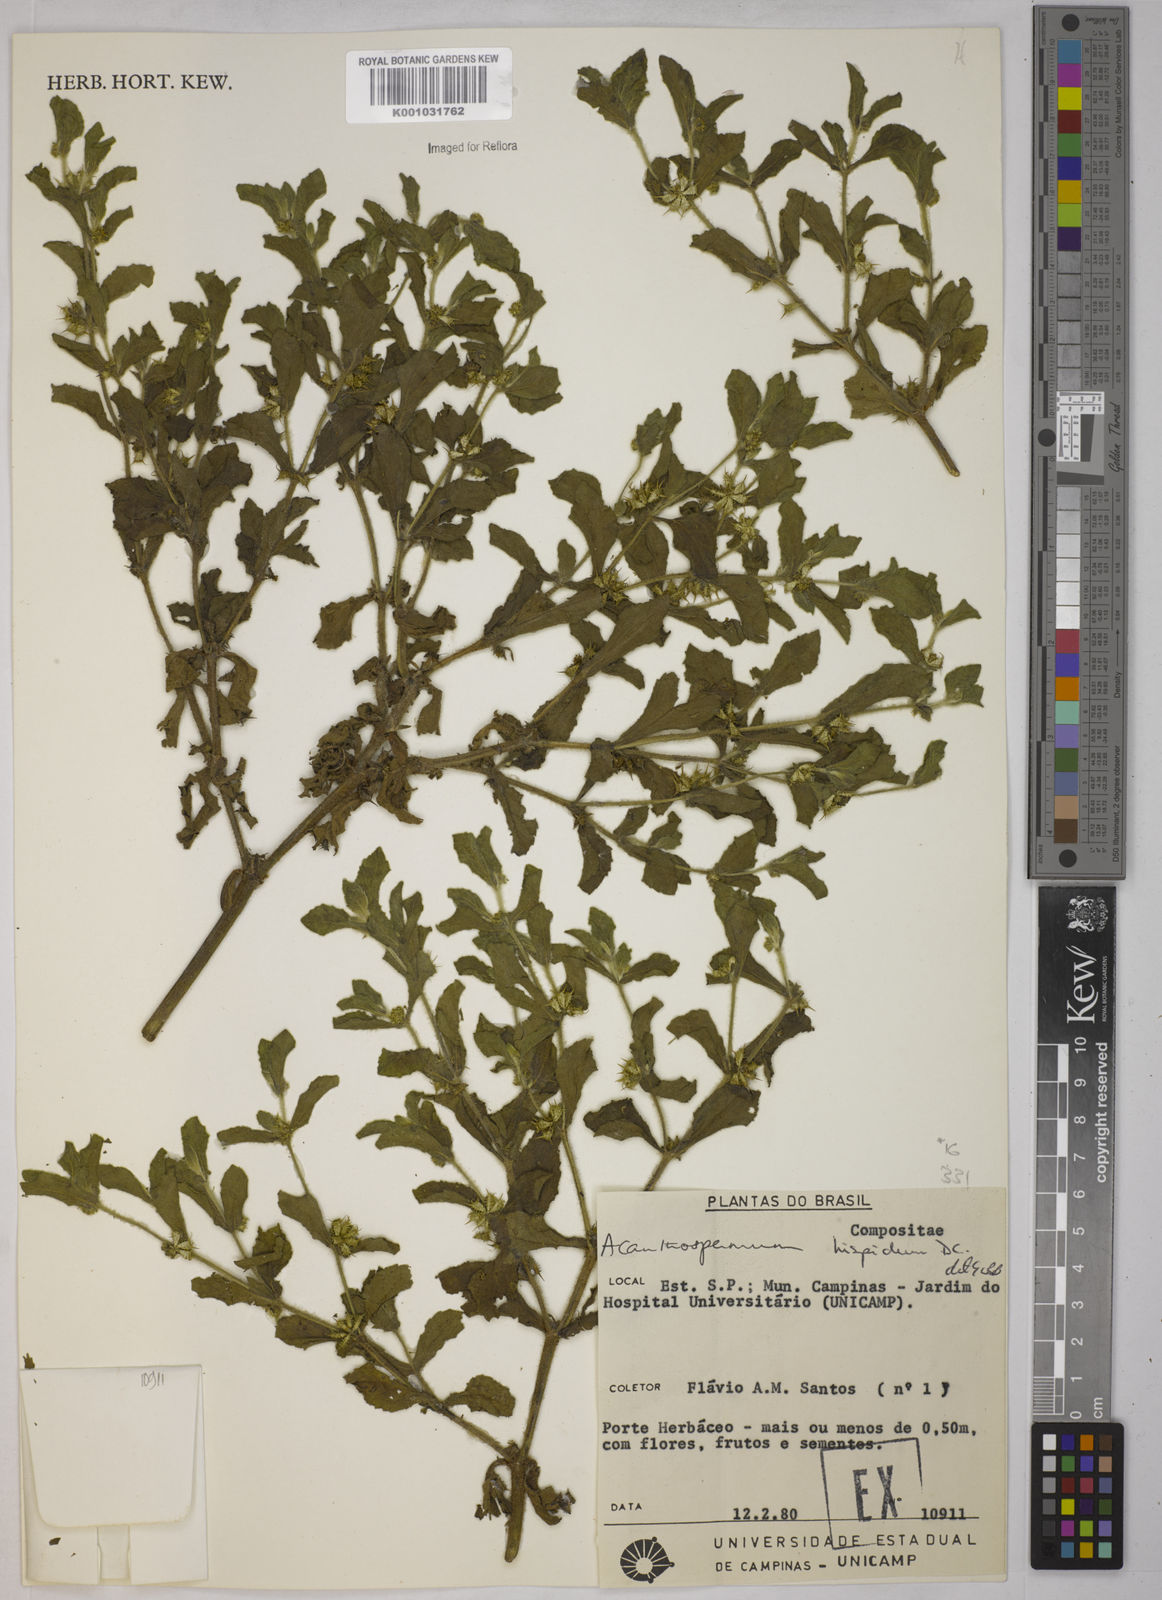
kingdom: Plantae
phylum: Tracheophyta
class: Magnoliopsida
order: Asterales
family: Asteraceae
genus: Acanthospermum
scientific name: Acanthospermum hispidum
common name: Hispid starbur
